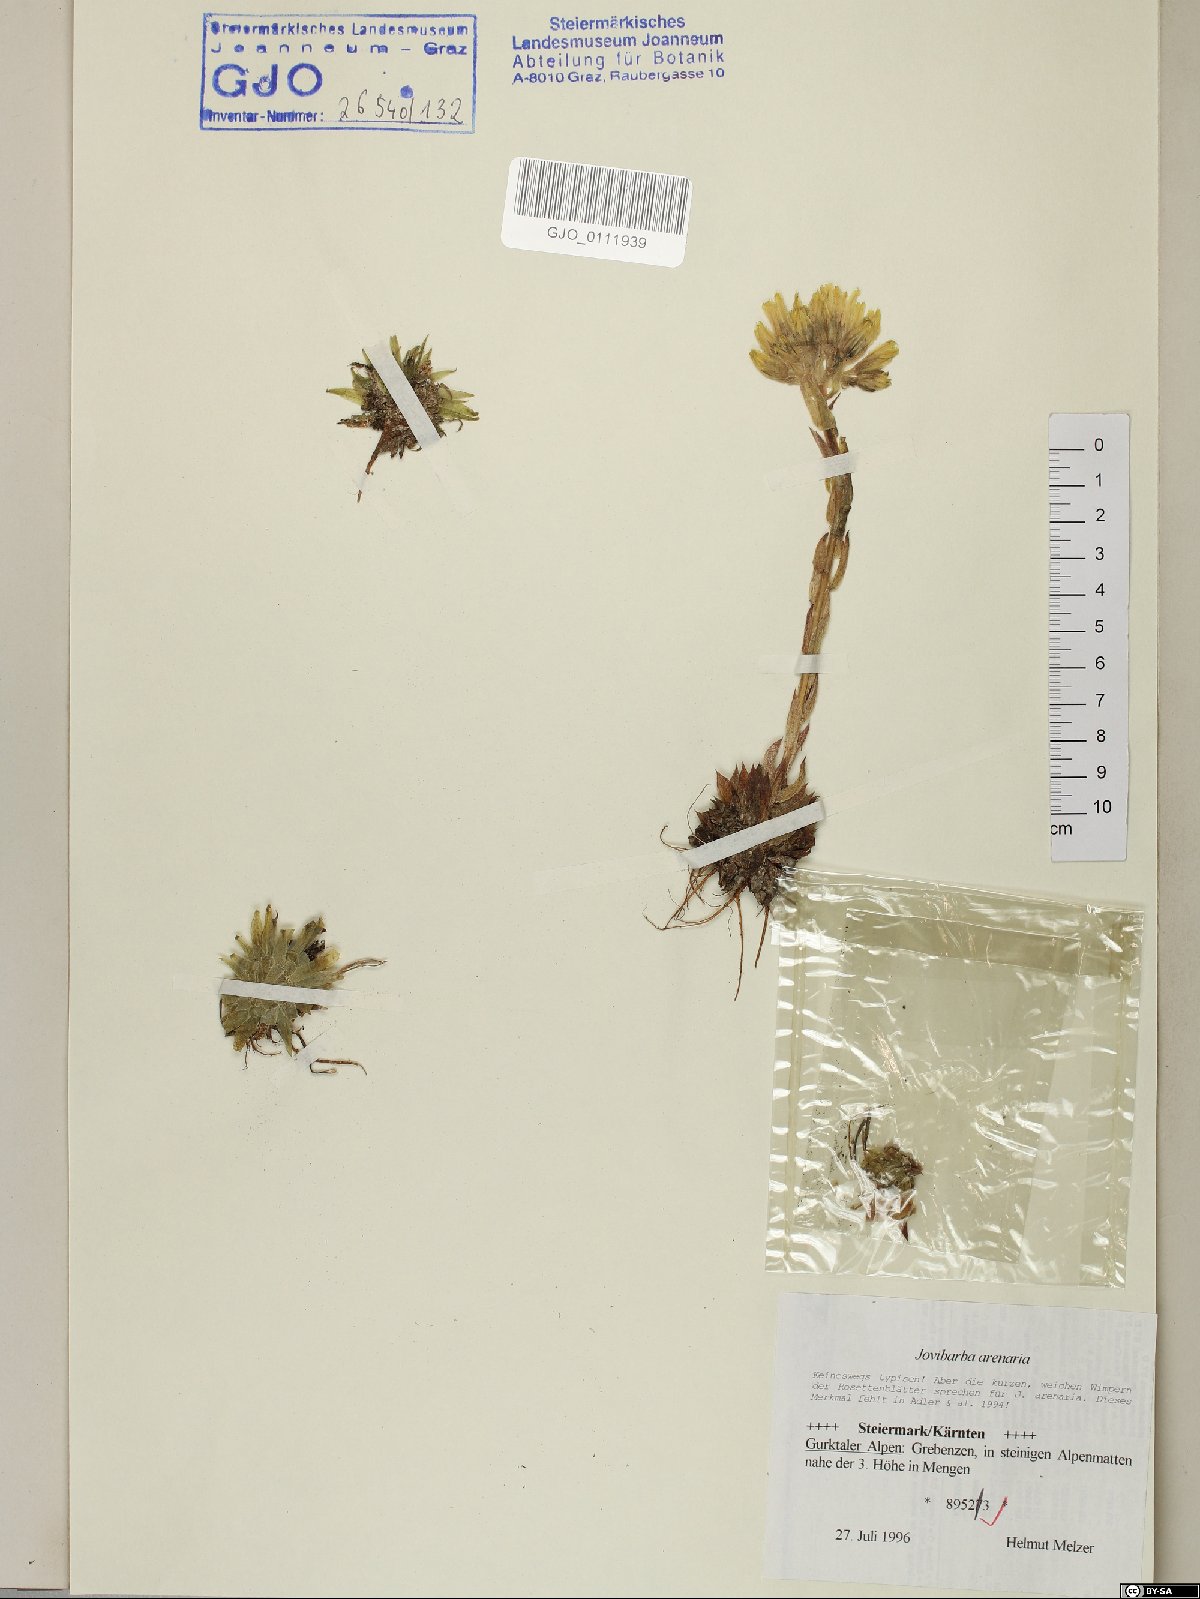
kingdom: Plantae
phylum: Tracheophyta
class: Magnoliopsida
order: Saxifragales
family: Crassulaceae
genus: Sempervivum
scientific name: Sempervivum globiferum
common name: Rolling hen-and-chicks
